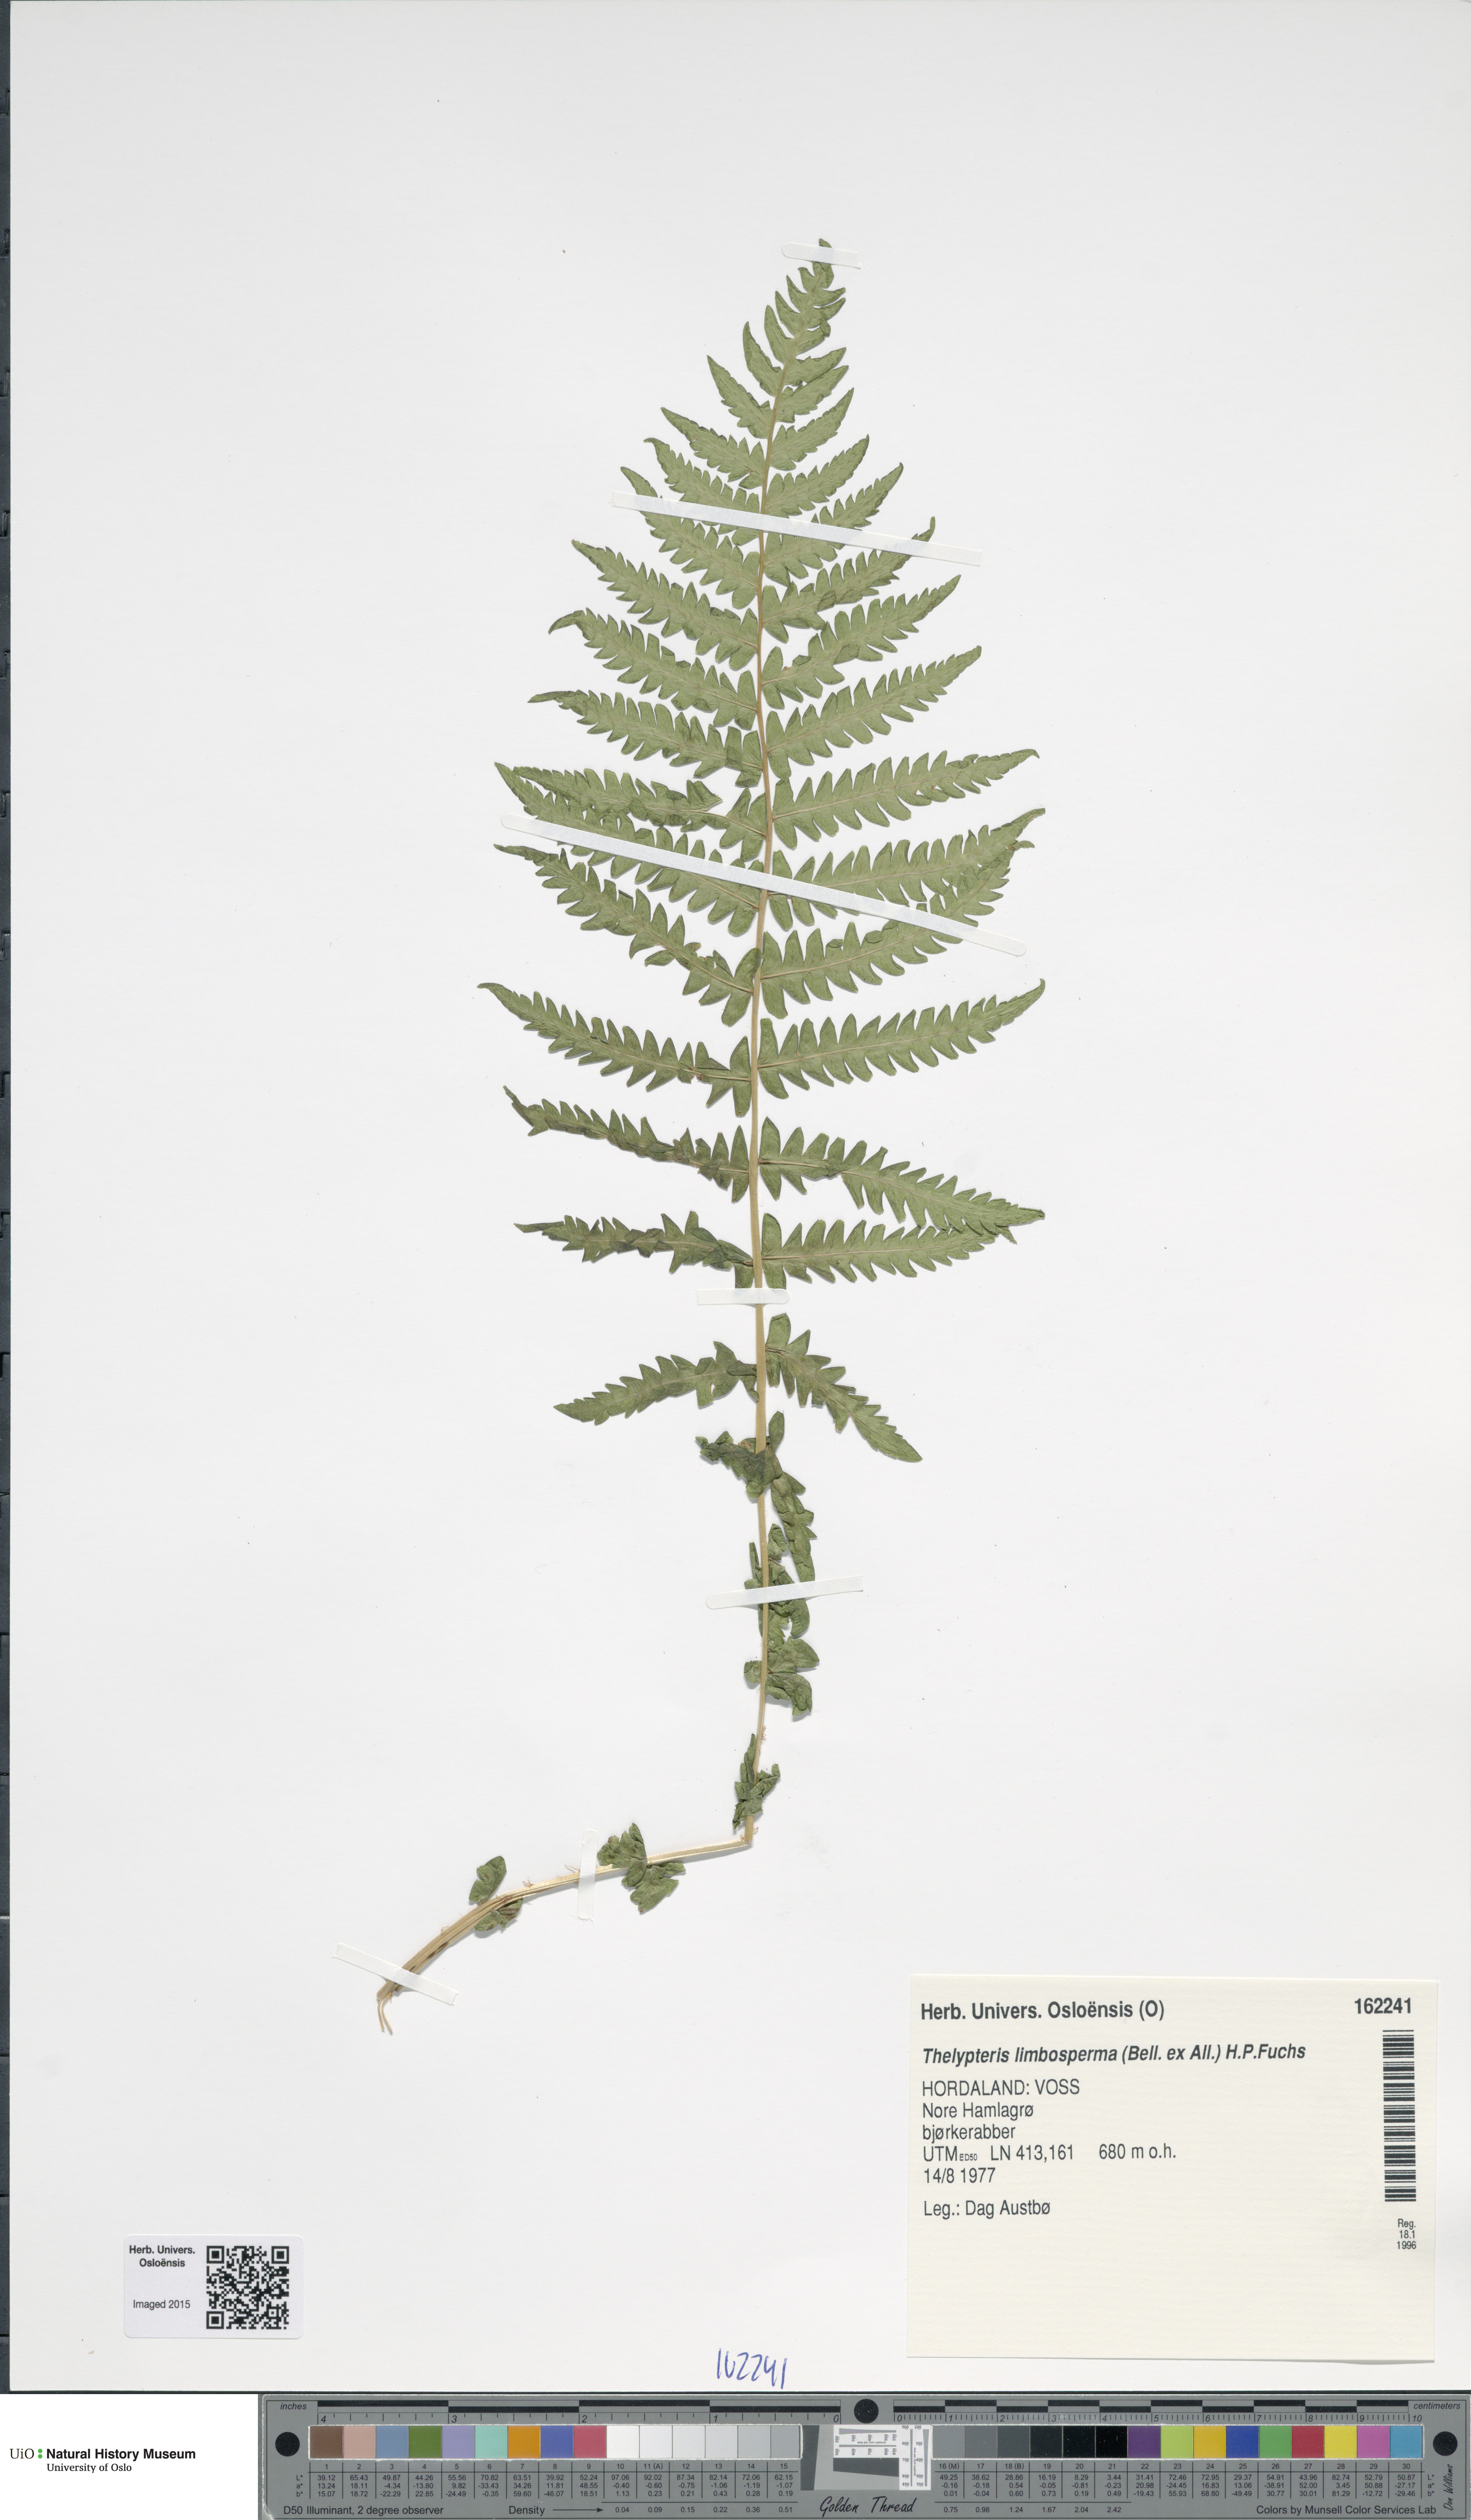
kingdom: Plantae
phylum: Tracheophyta
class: Polypodiopsida
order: Polypodiales
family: Thelypteridaceae
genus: Oreopteris
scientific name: Oreopteris limbosperma
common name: Lemon-scented fern
